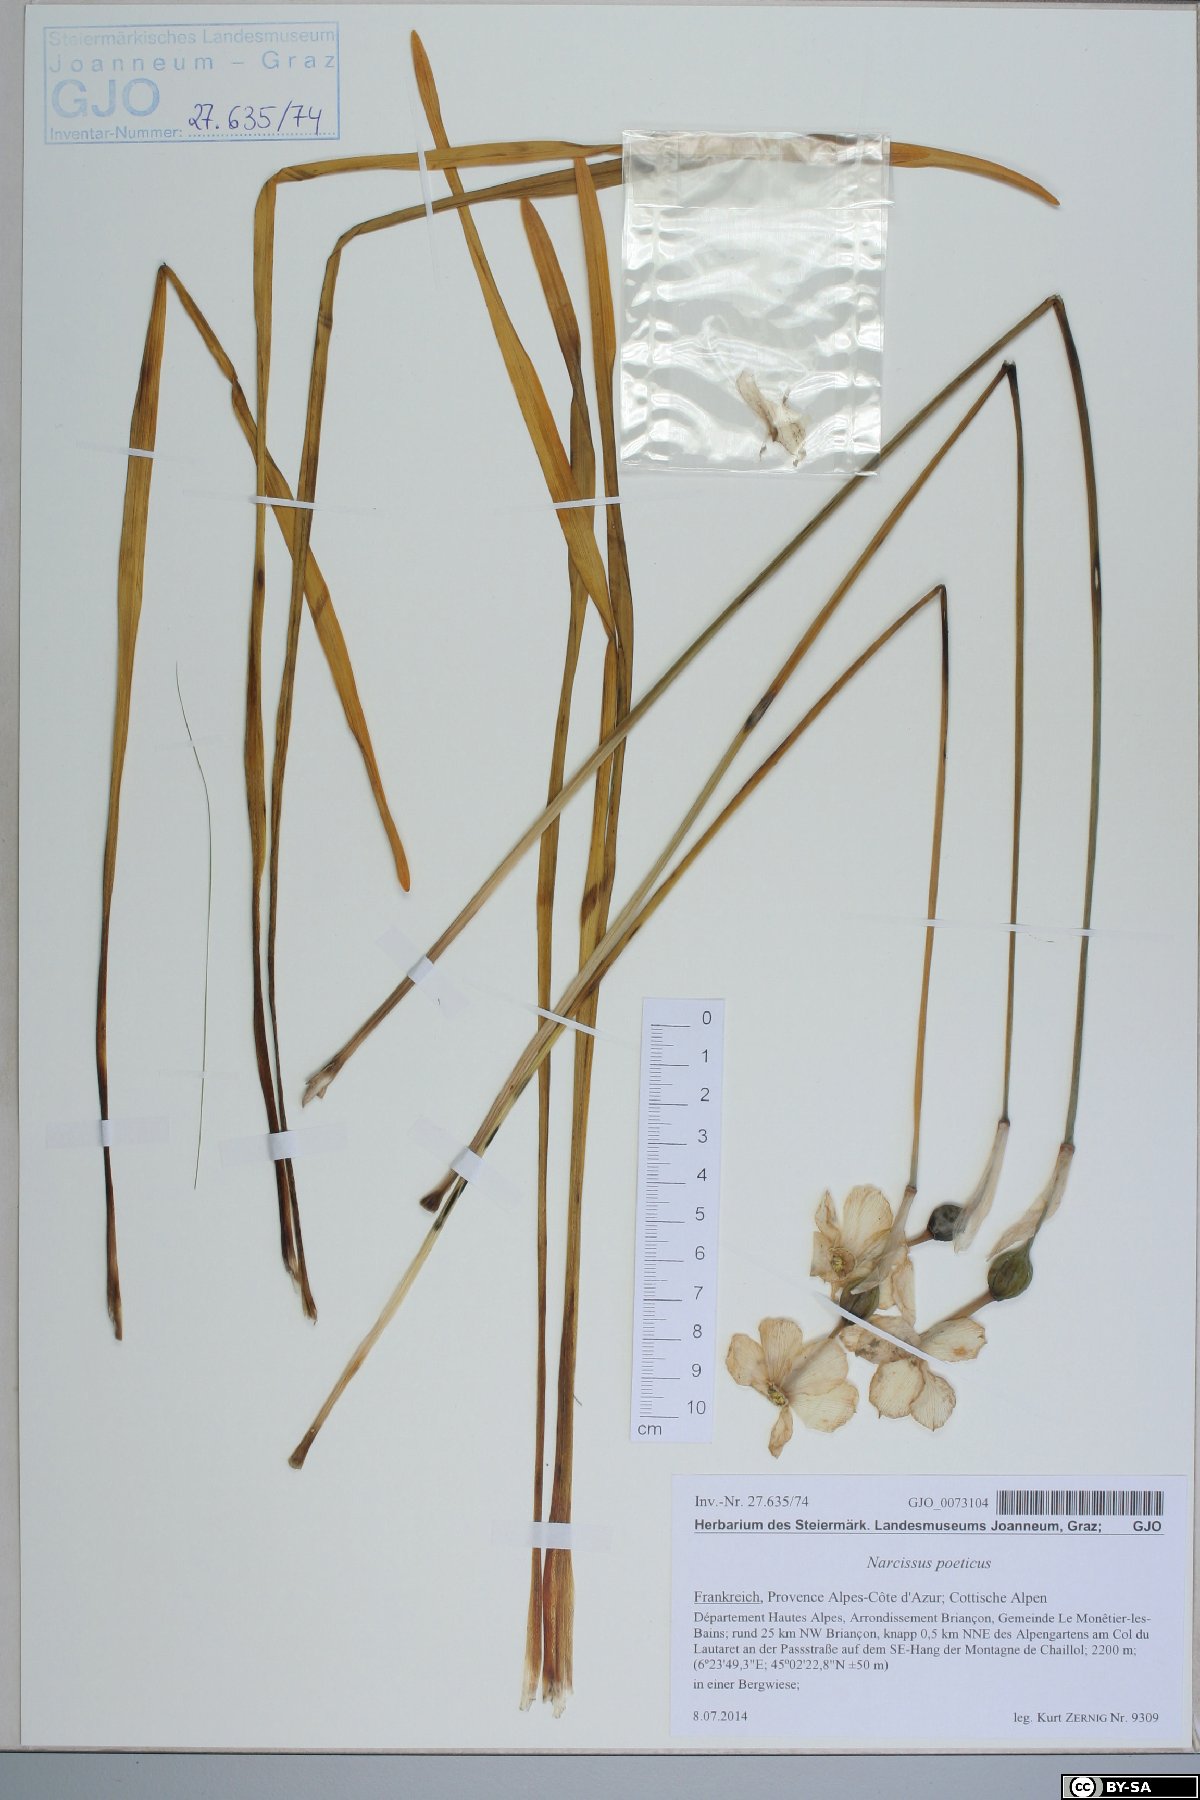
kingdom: Plantae
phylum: Tracheophyta
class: Liliopsida
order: Asparagales
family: Amaryllidaceae
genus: Narcissus
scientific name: Narcissus poeticus
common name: Pheasant's-eye daffodil
